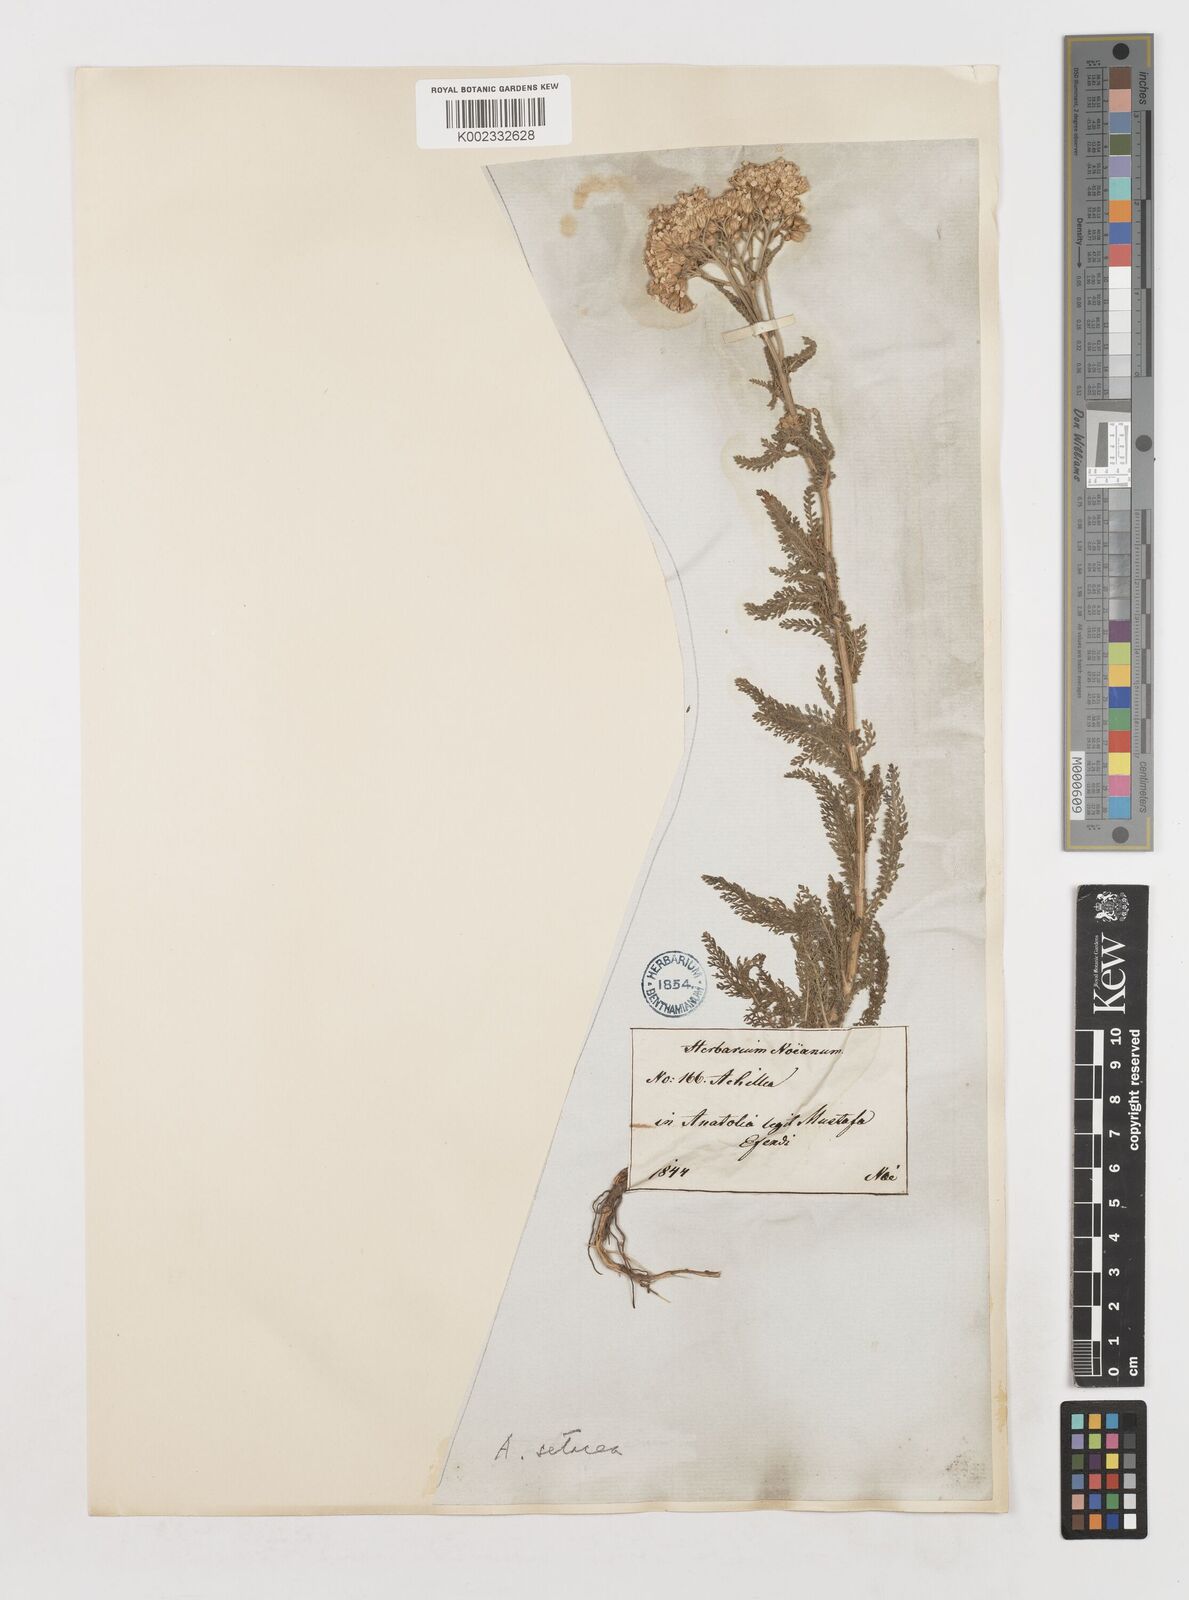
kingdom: Plantae
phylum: Tracheophyta
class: Magnoliopsida
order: Asterales
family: Asteraceae
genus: Achillea
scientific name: Achillea setacea
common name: Bristly yarrow
